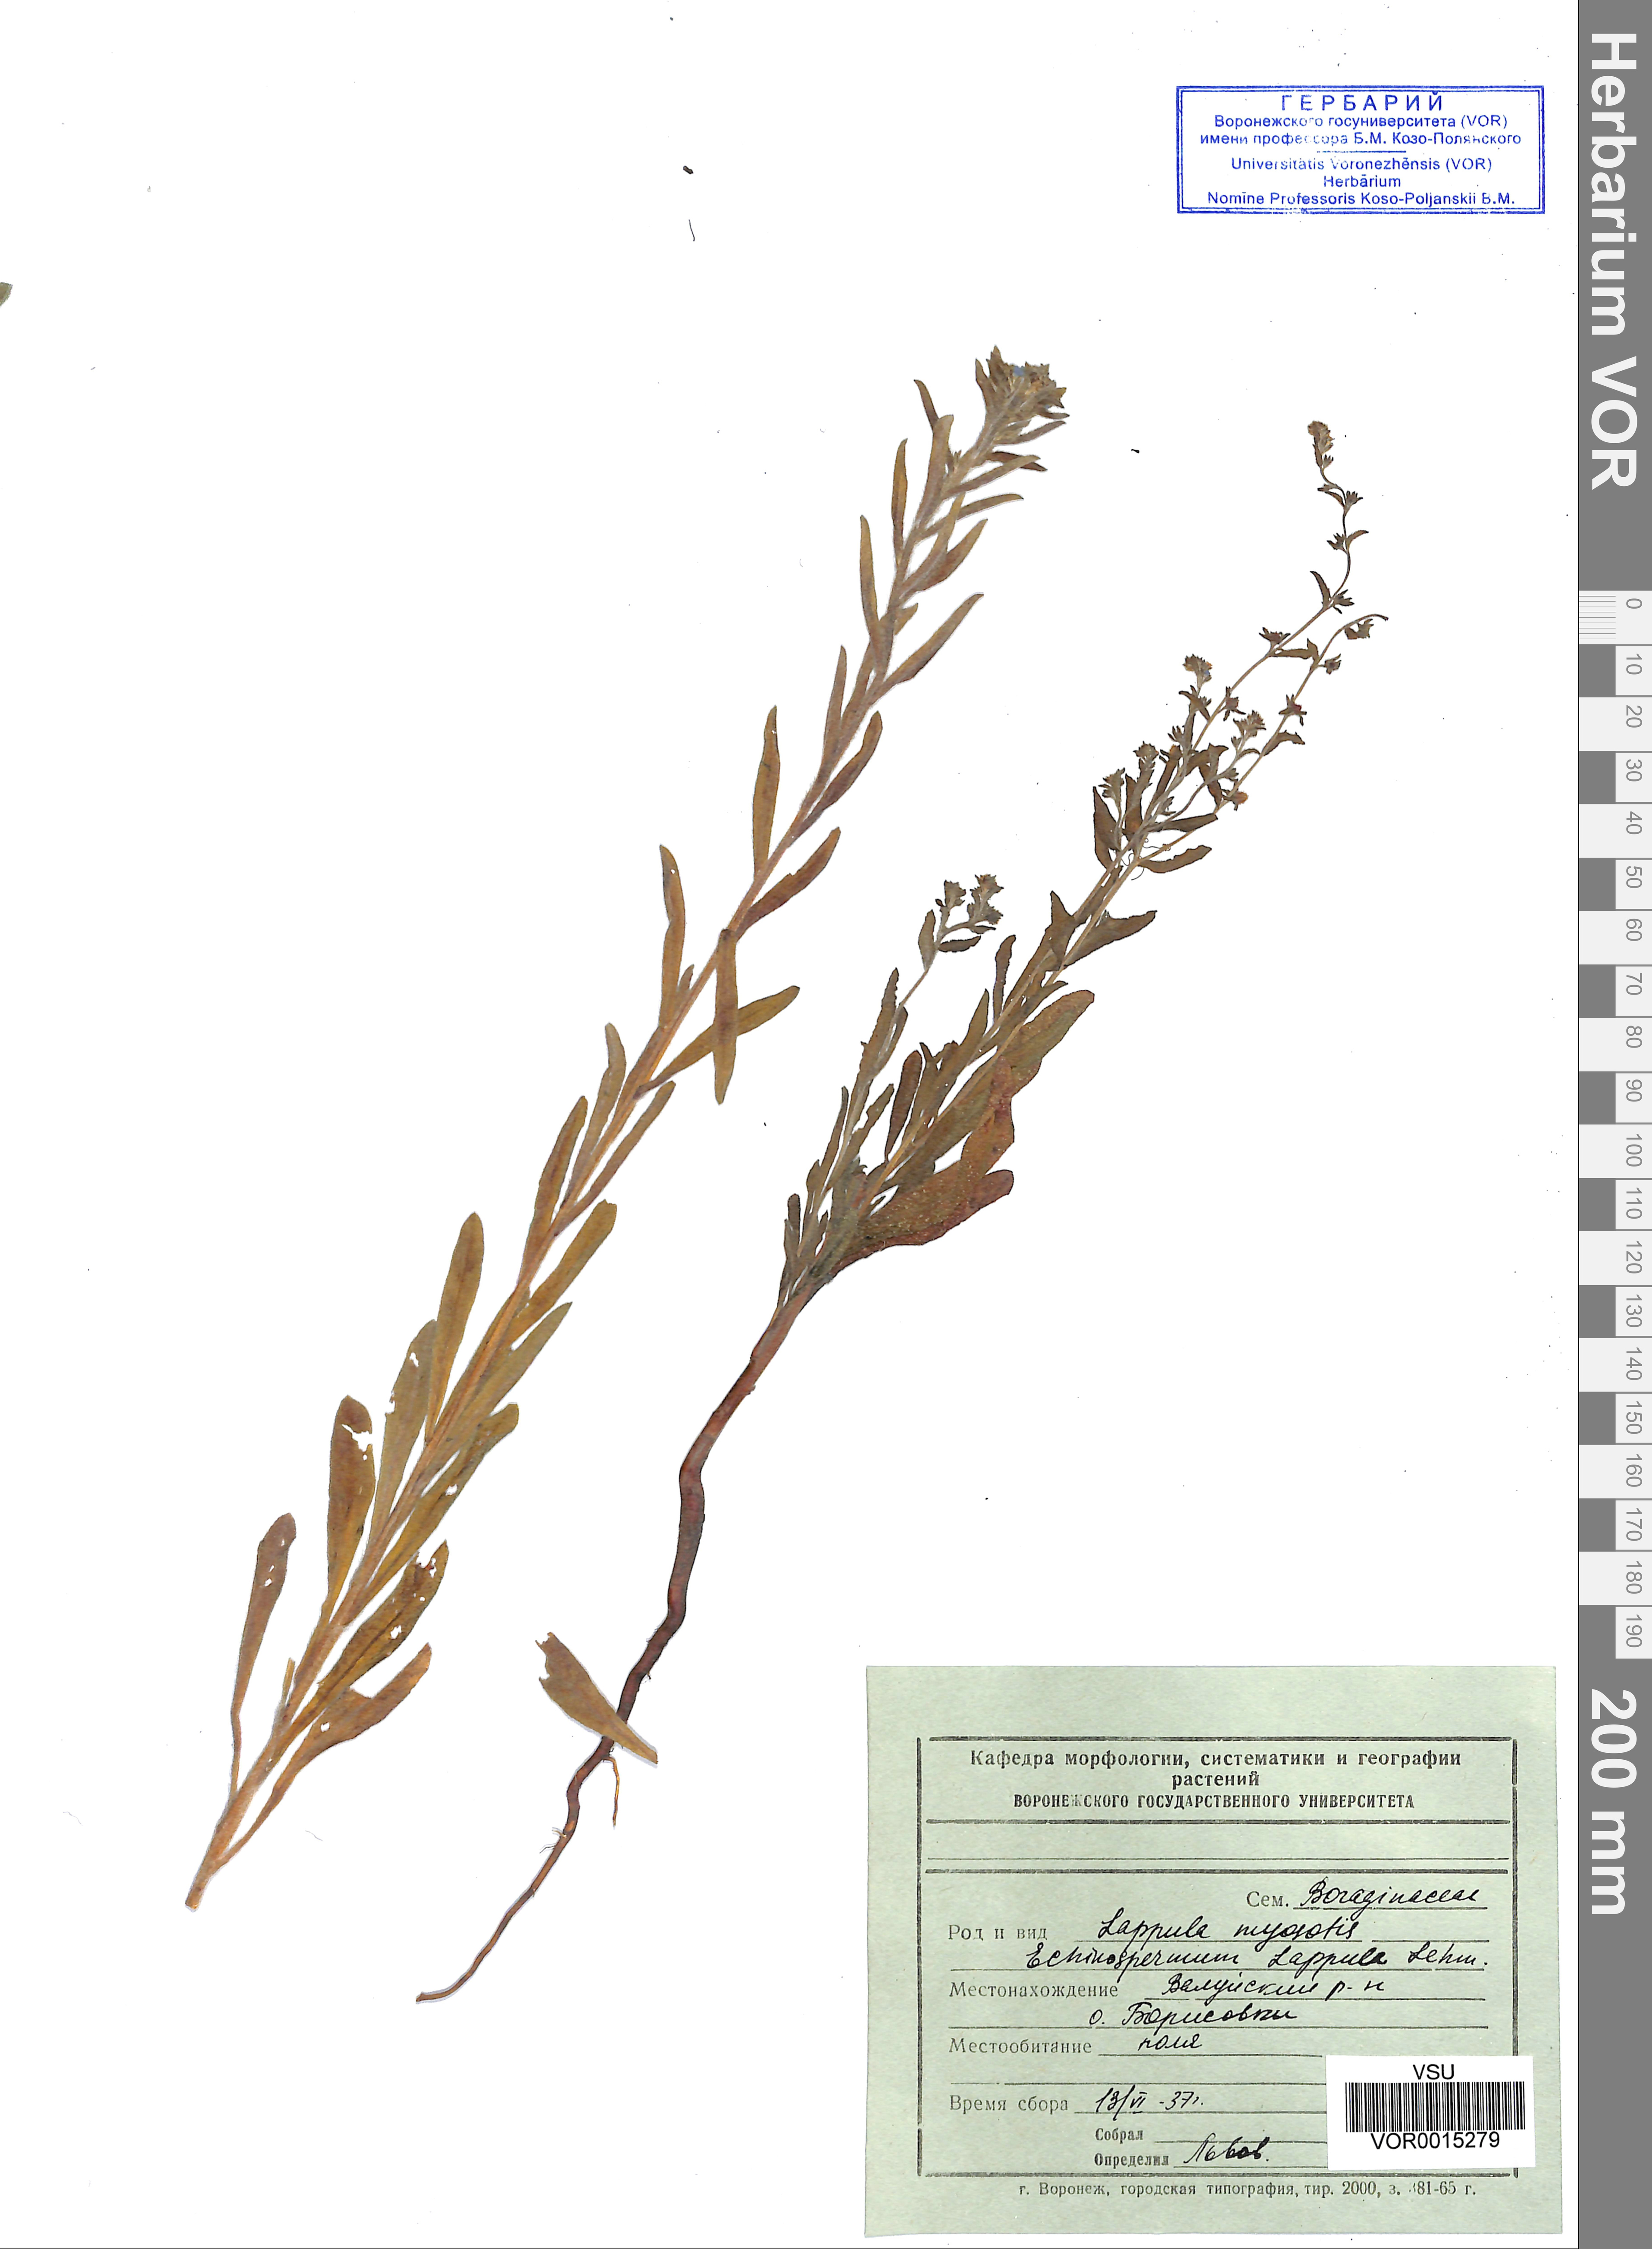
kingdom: Plantae
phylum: Tracheophyta
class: Magnoliopsida
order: Boraginales
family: Boraginaceae
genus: Lappula
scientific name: Lappula squarrosa
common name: European stickseed
